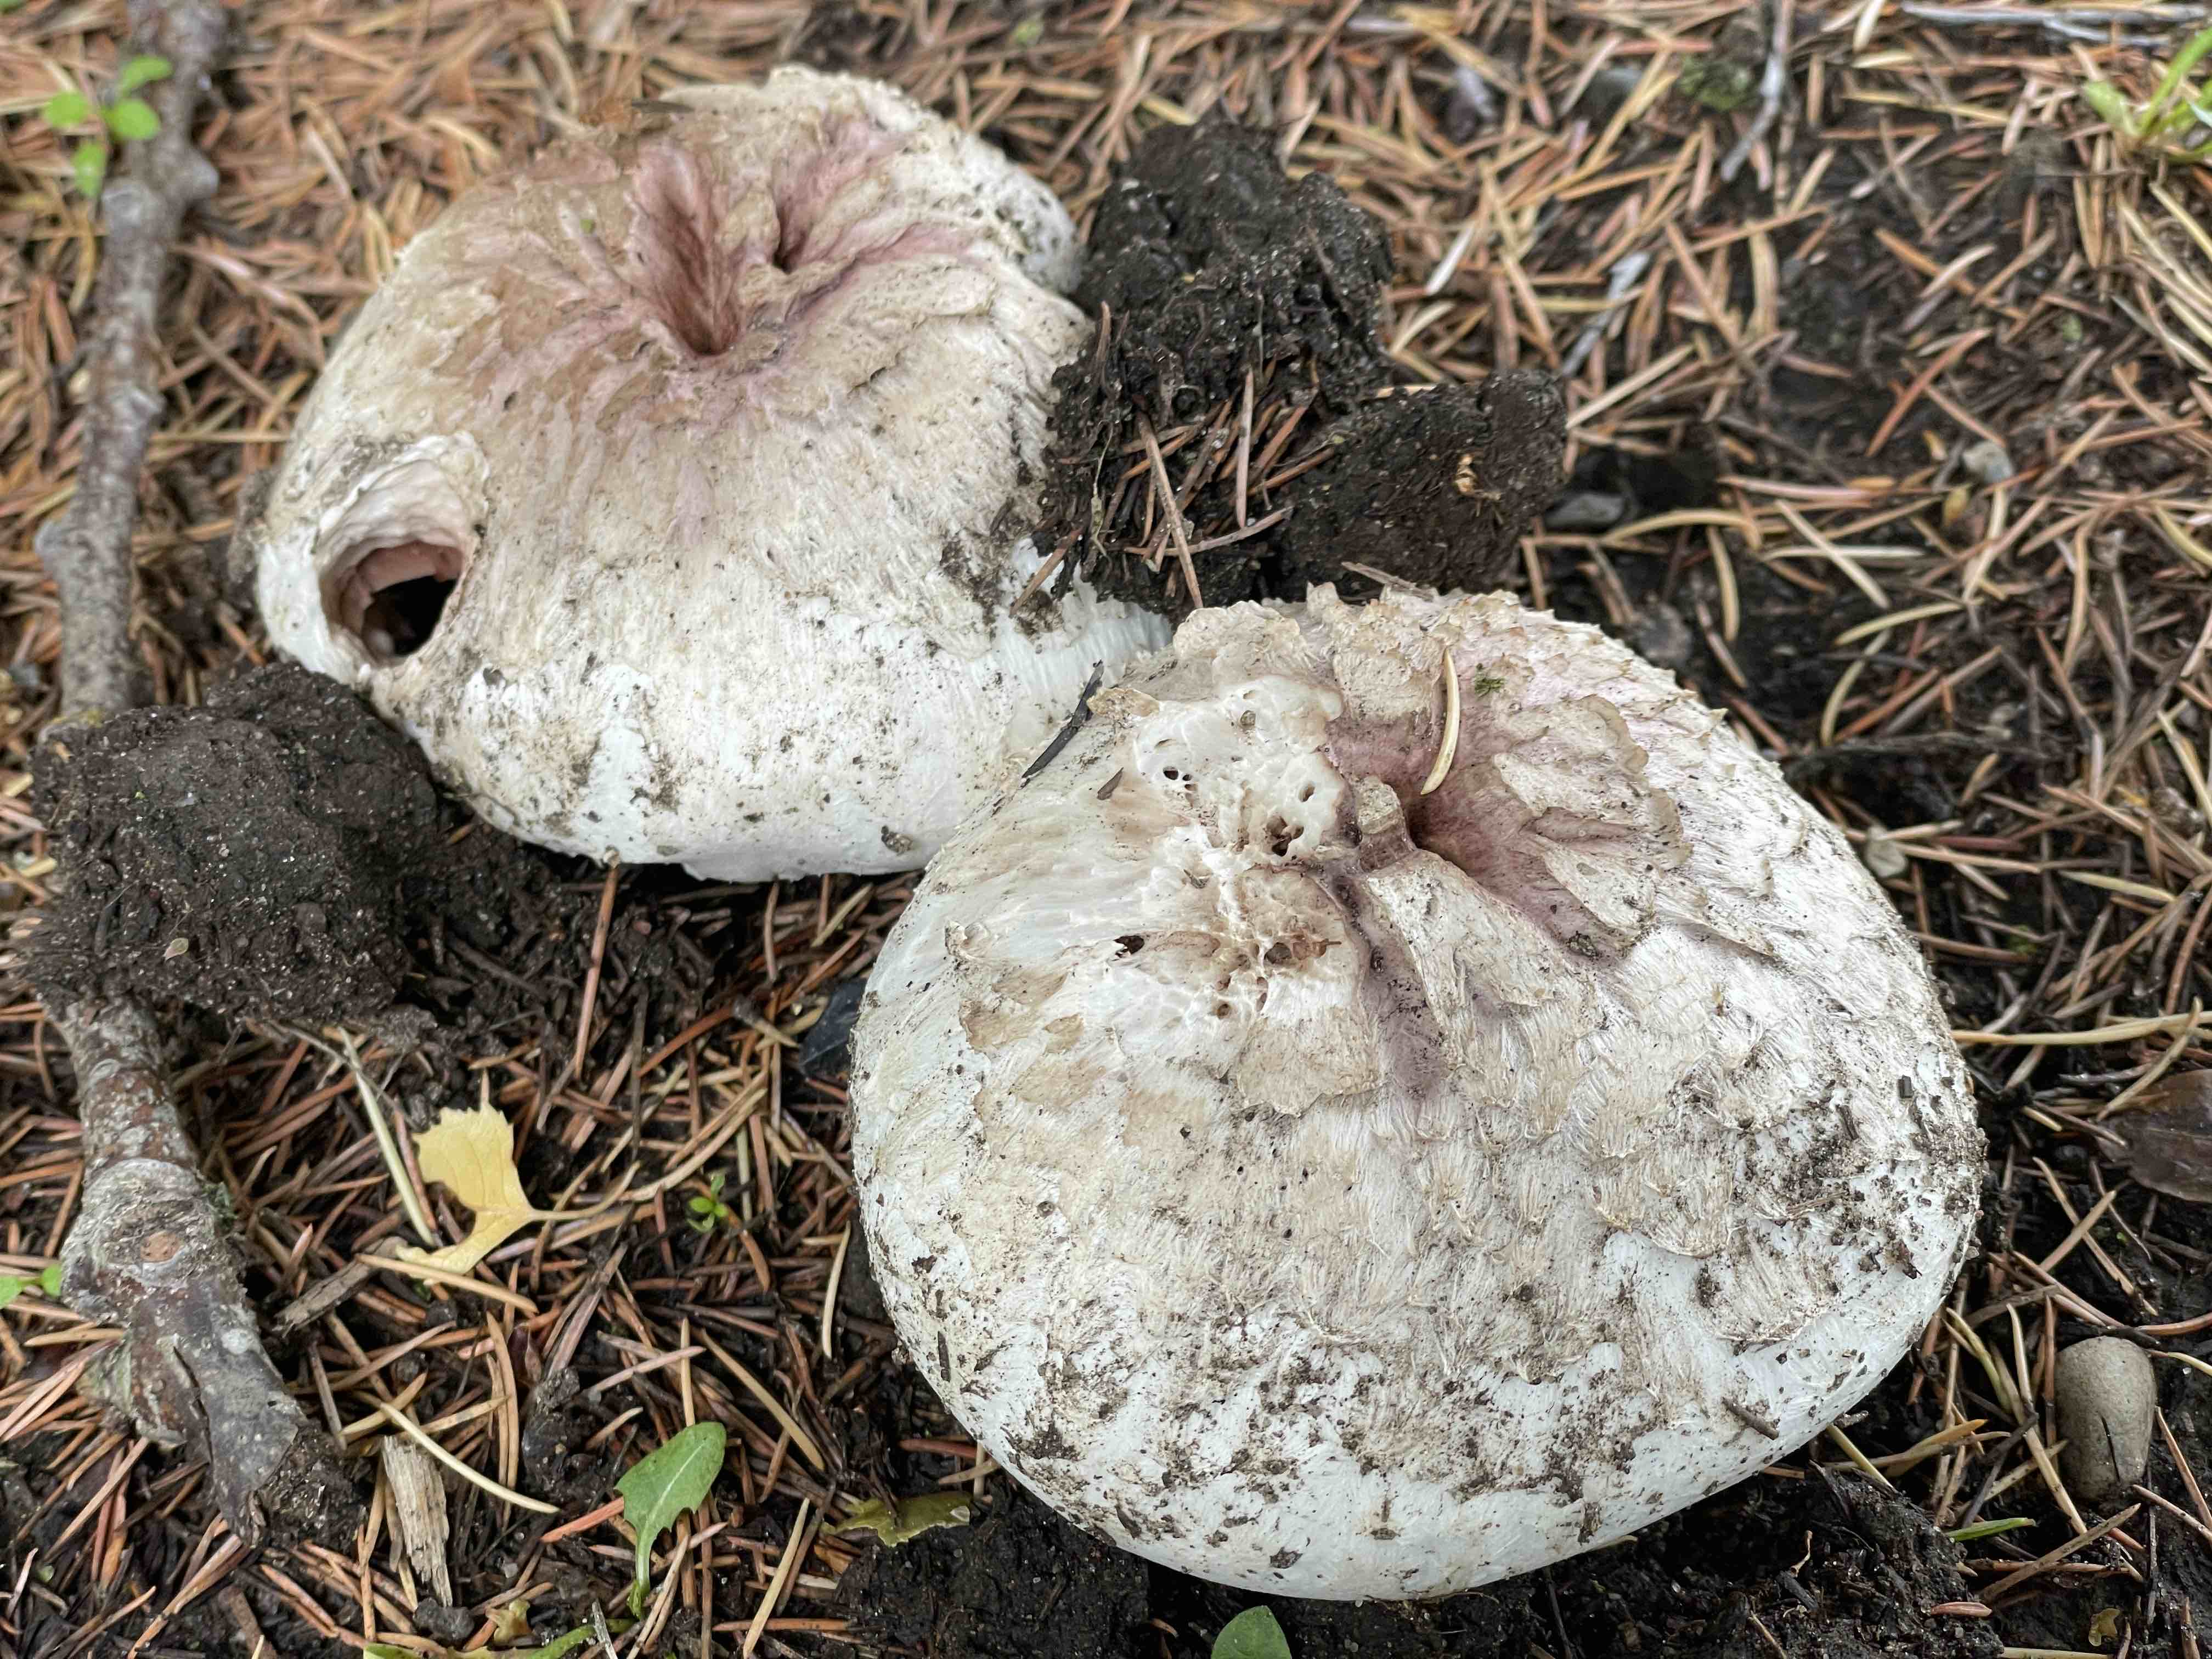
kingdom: Fungi
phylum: Basidiomycota
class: Agaricomycetes
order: Agaricales
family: Agaricaceae
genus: Agaricus
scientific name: Agaricus
